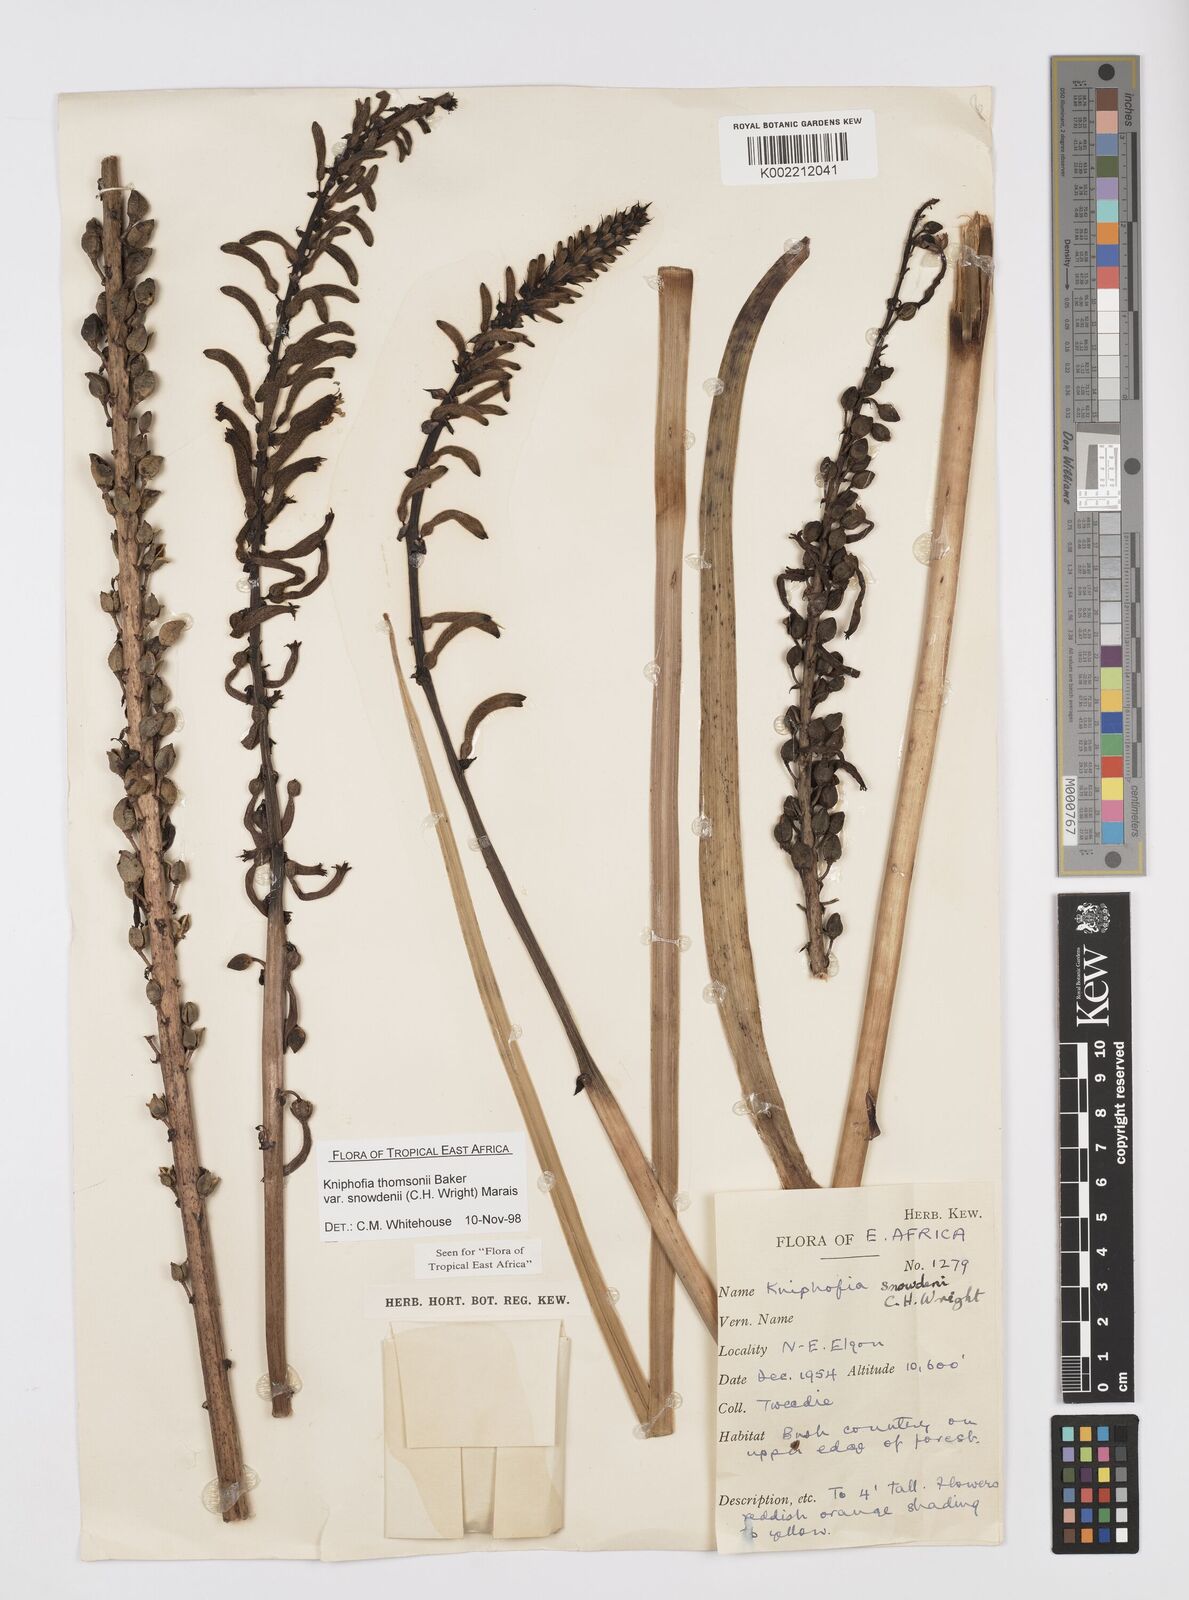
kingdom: Plantae
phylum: Tracheophyta
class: Liliopsida
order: Asparagales
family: Asphodelaceae
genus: Kniphofia
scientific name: Kniphofia
